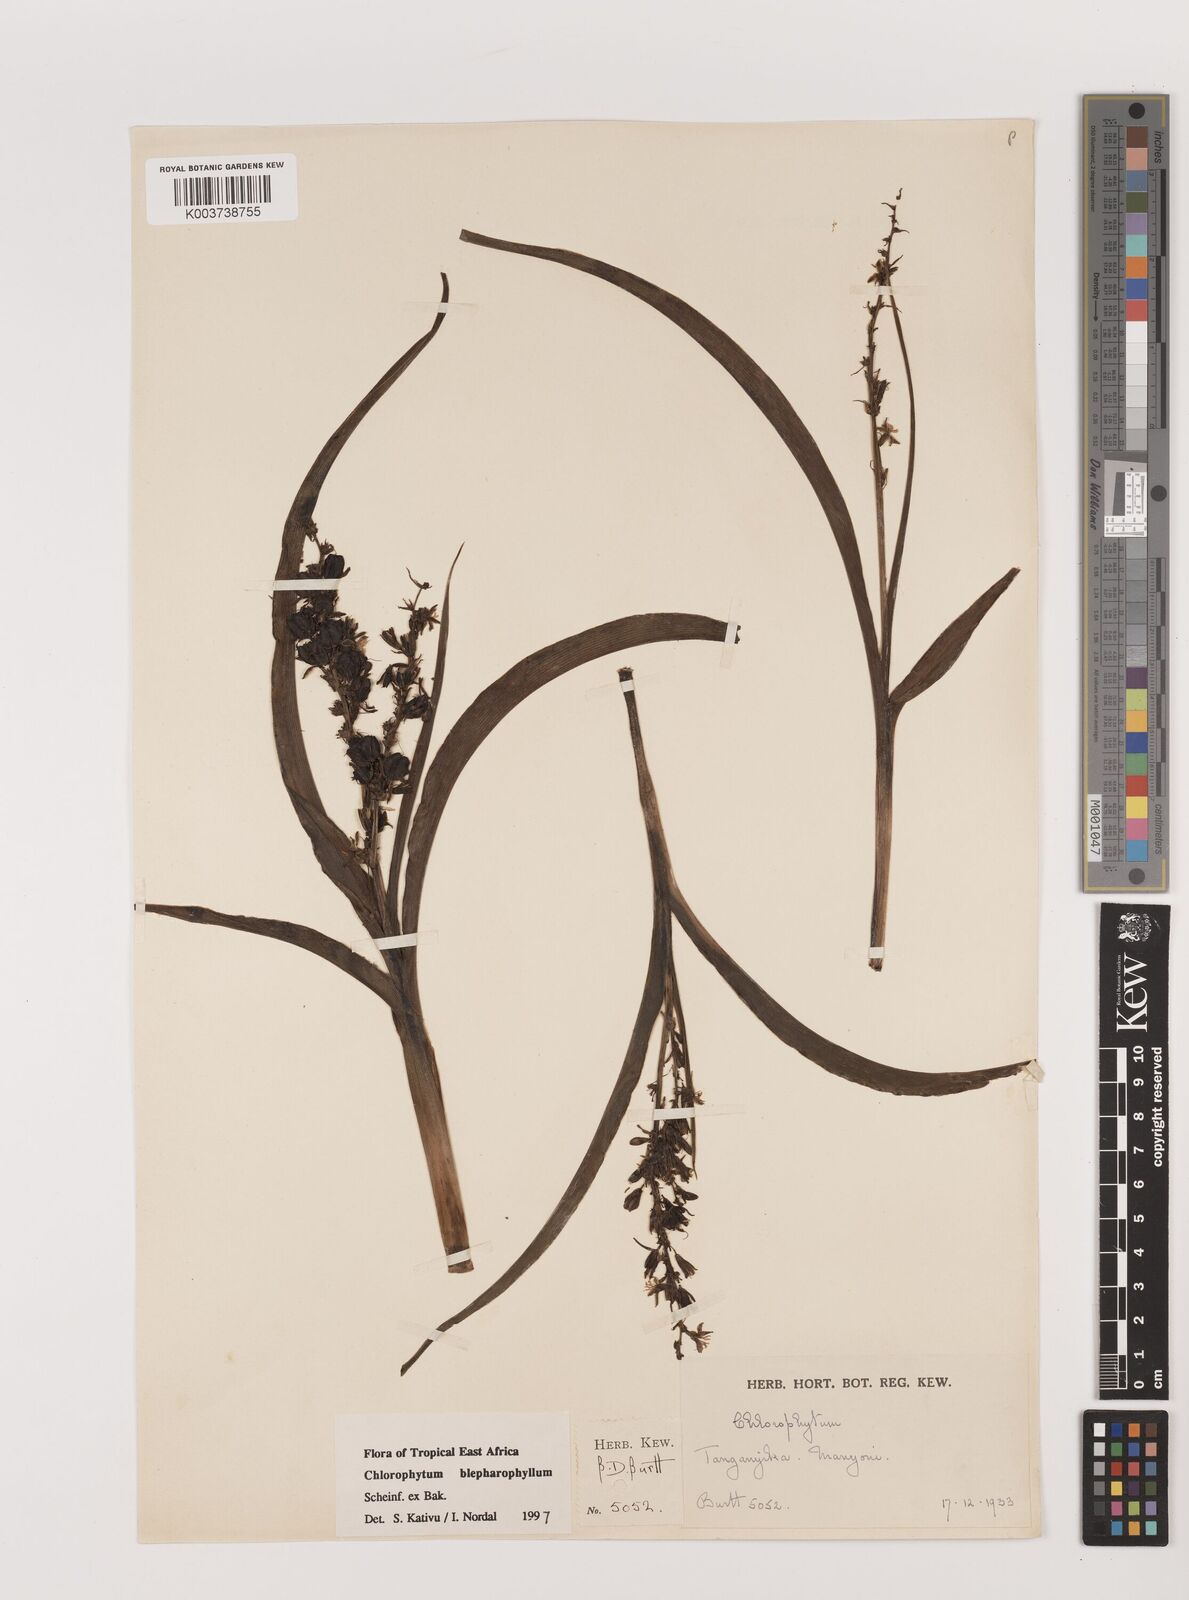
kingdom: Plantae
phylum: Tracheophyta
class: Liliopsida
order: Asparagales
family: Asparagaceae
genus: Chlorophytum
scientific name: Chlorophytum blepharophyllum
